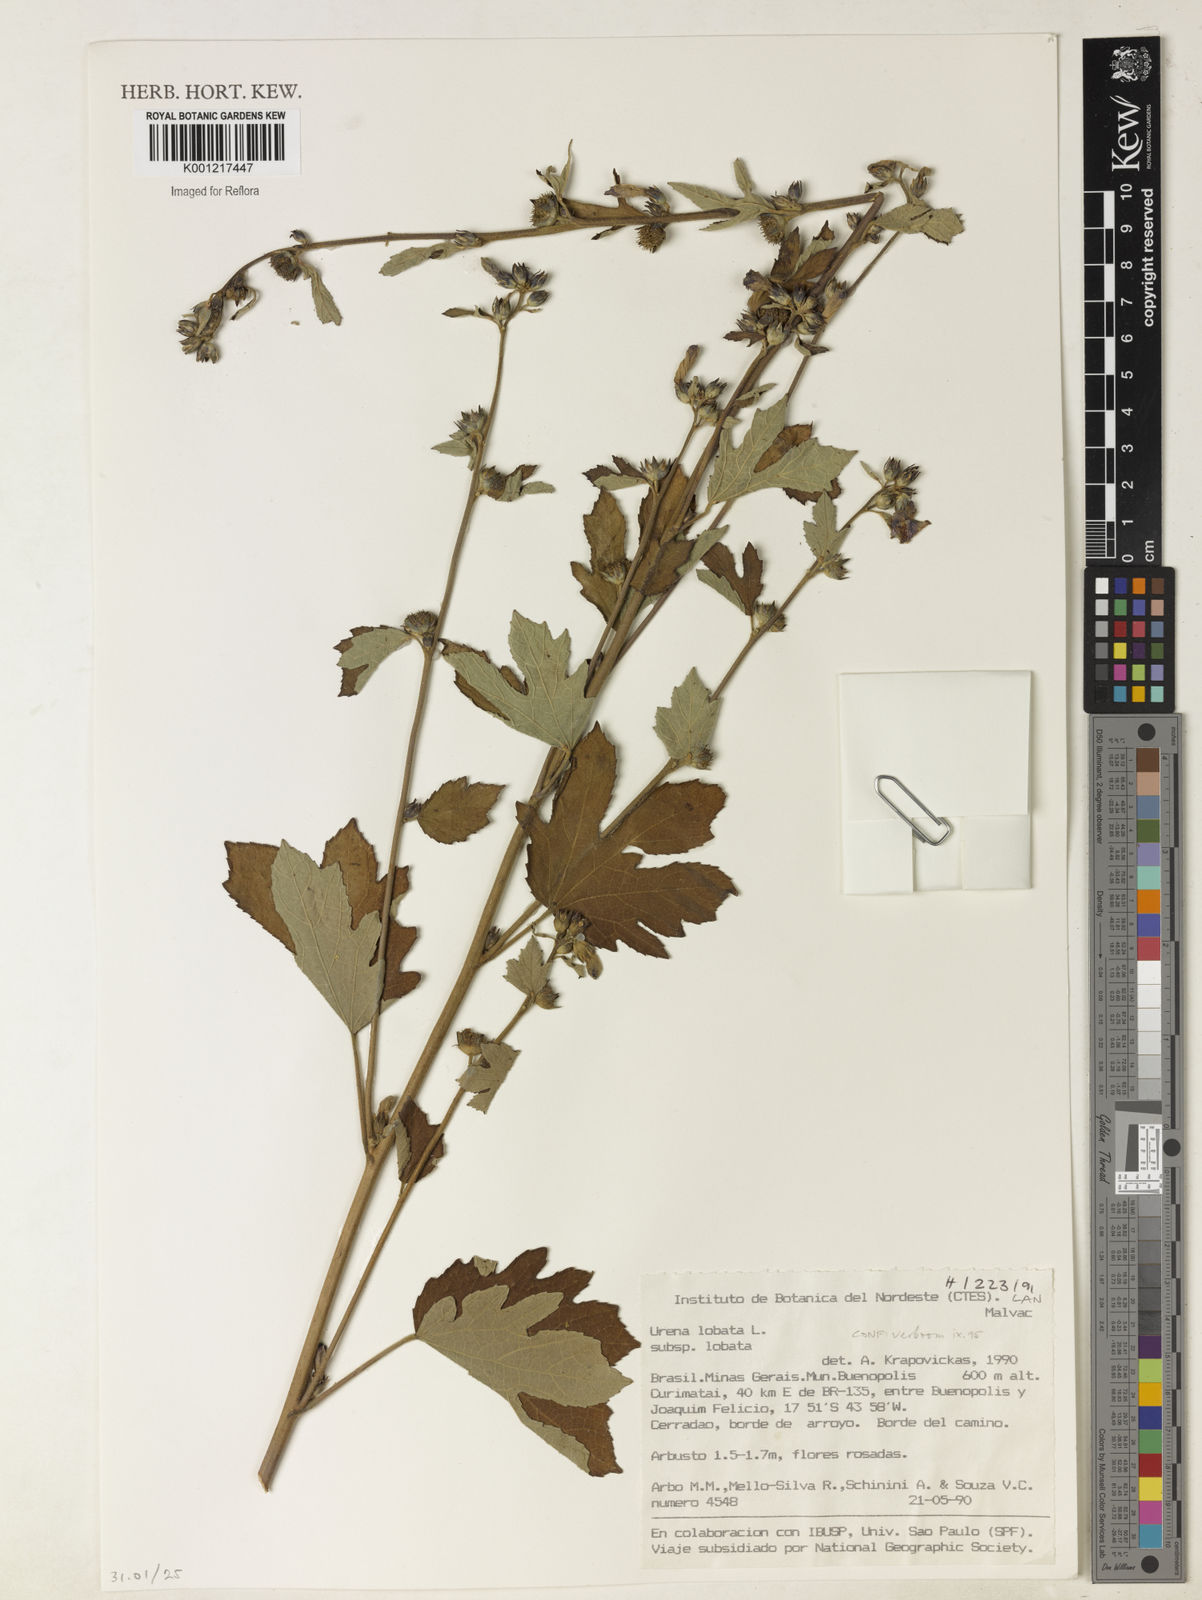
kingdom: Plantae
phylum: Tracheophyta
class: Magnoliopsida
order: Malvales
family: Malvaceae
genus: Urena
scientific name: Urena lobata
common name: Caesarweed
